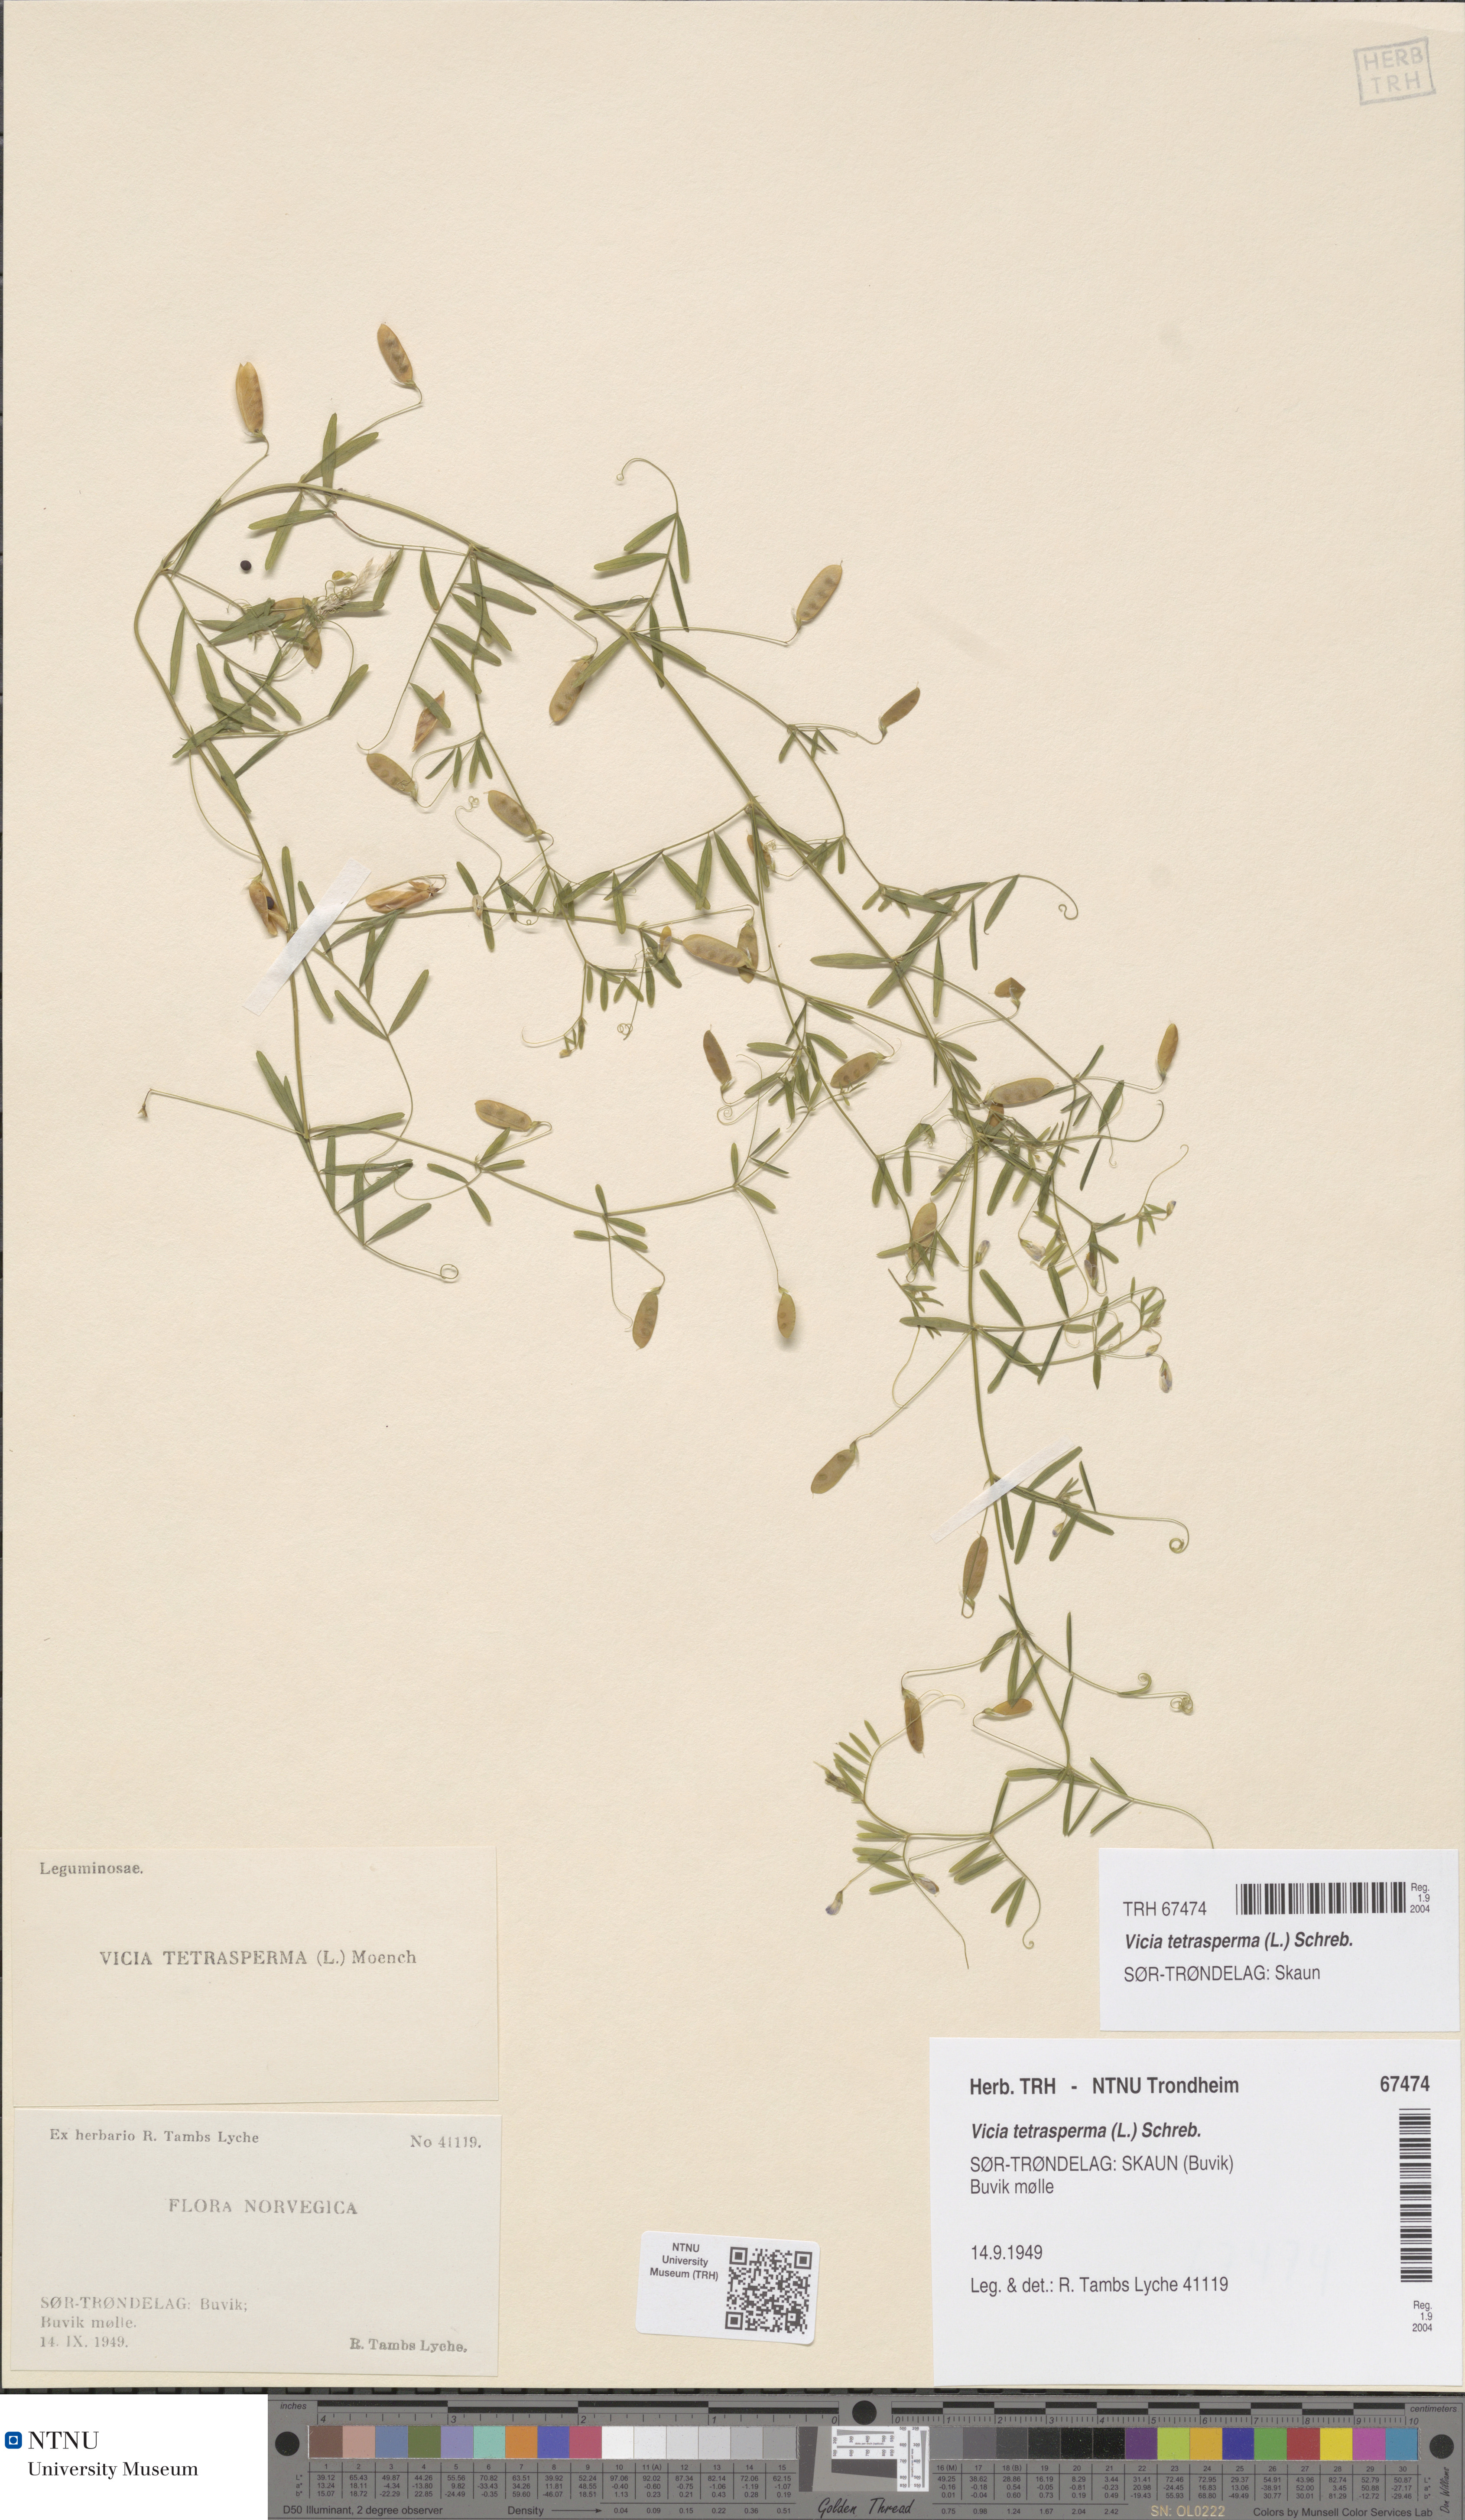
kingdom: Plantae
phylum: Tracheophyta
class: Magnoliopsida
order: Fabales
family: Fabaceae
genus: Vicia
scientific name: Vicia tetrasperma
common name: Smooth tare
